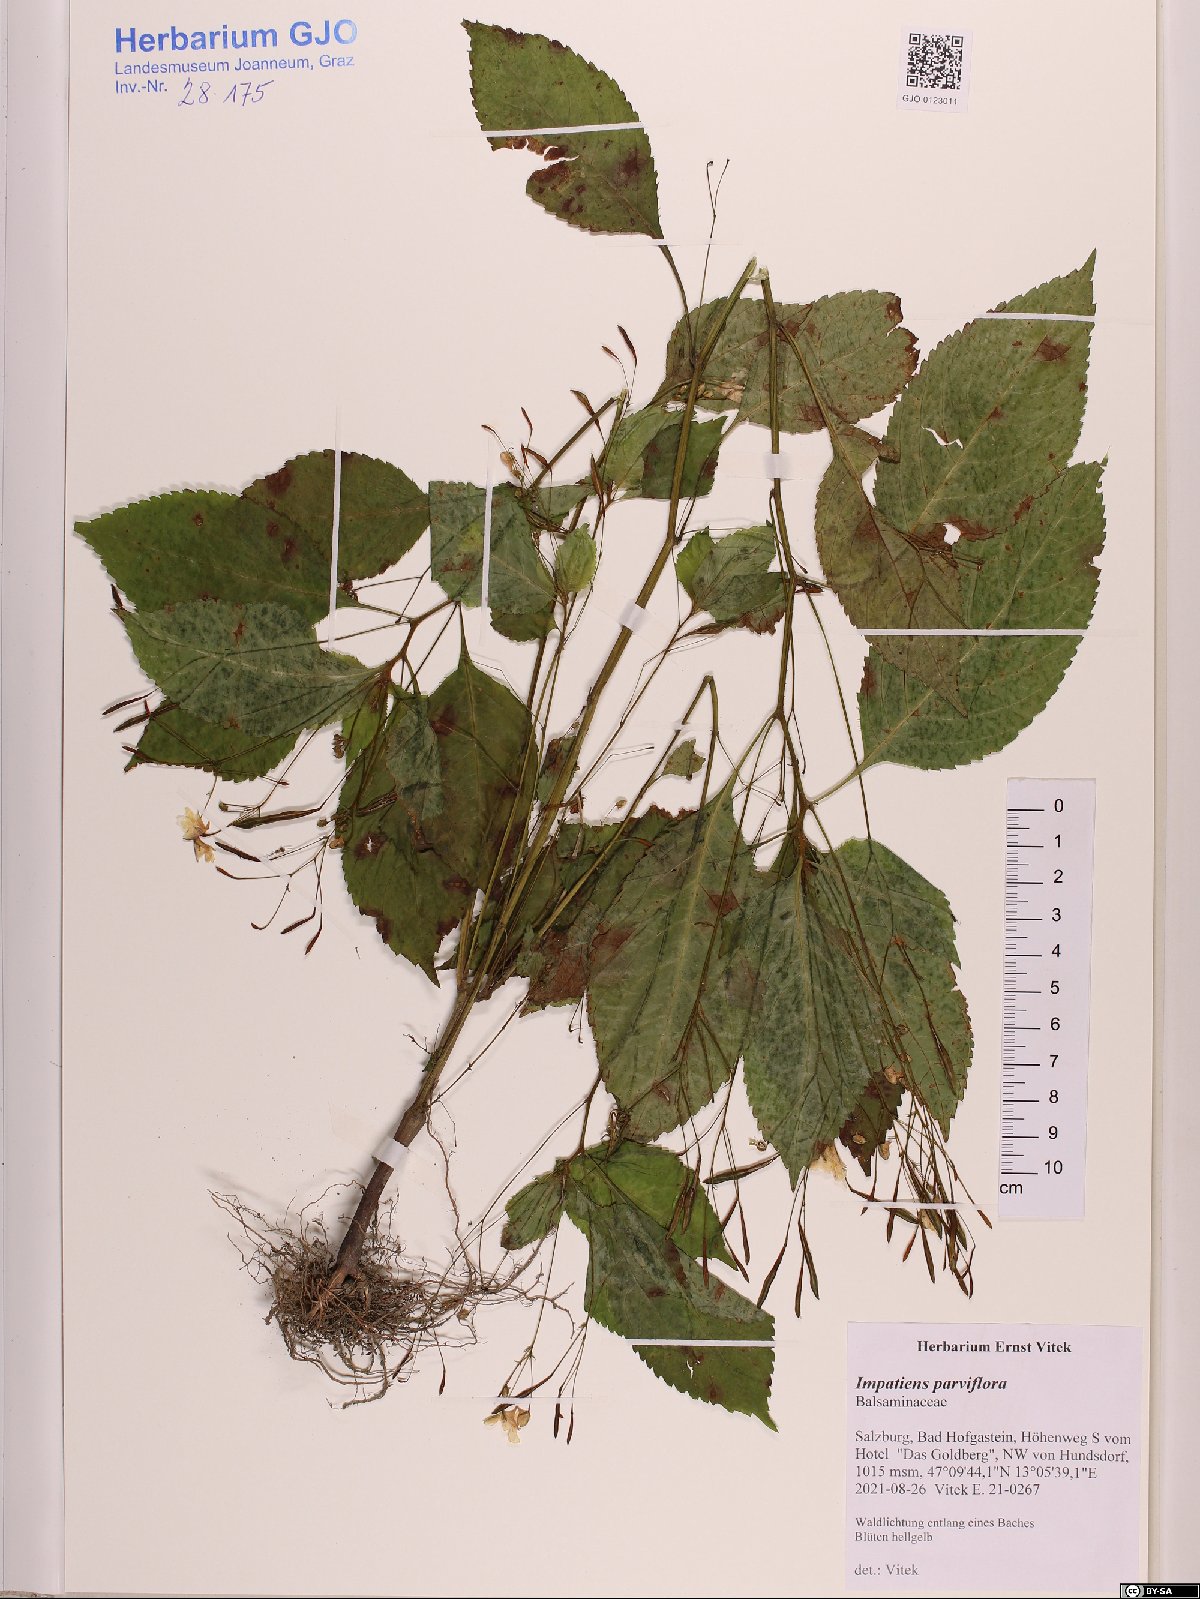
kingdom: Plantae
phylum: Tracheophyta
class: Magnoliopsida
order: Ericales
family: Balsaminaceae
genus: Impatiens
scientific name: Impatiens parviflora
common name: Small balsam
